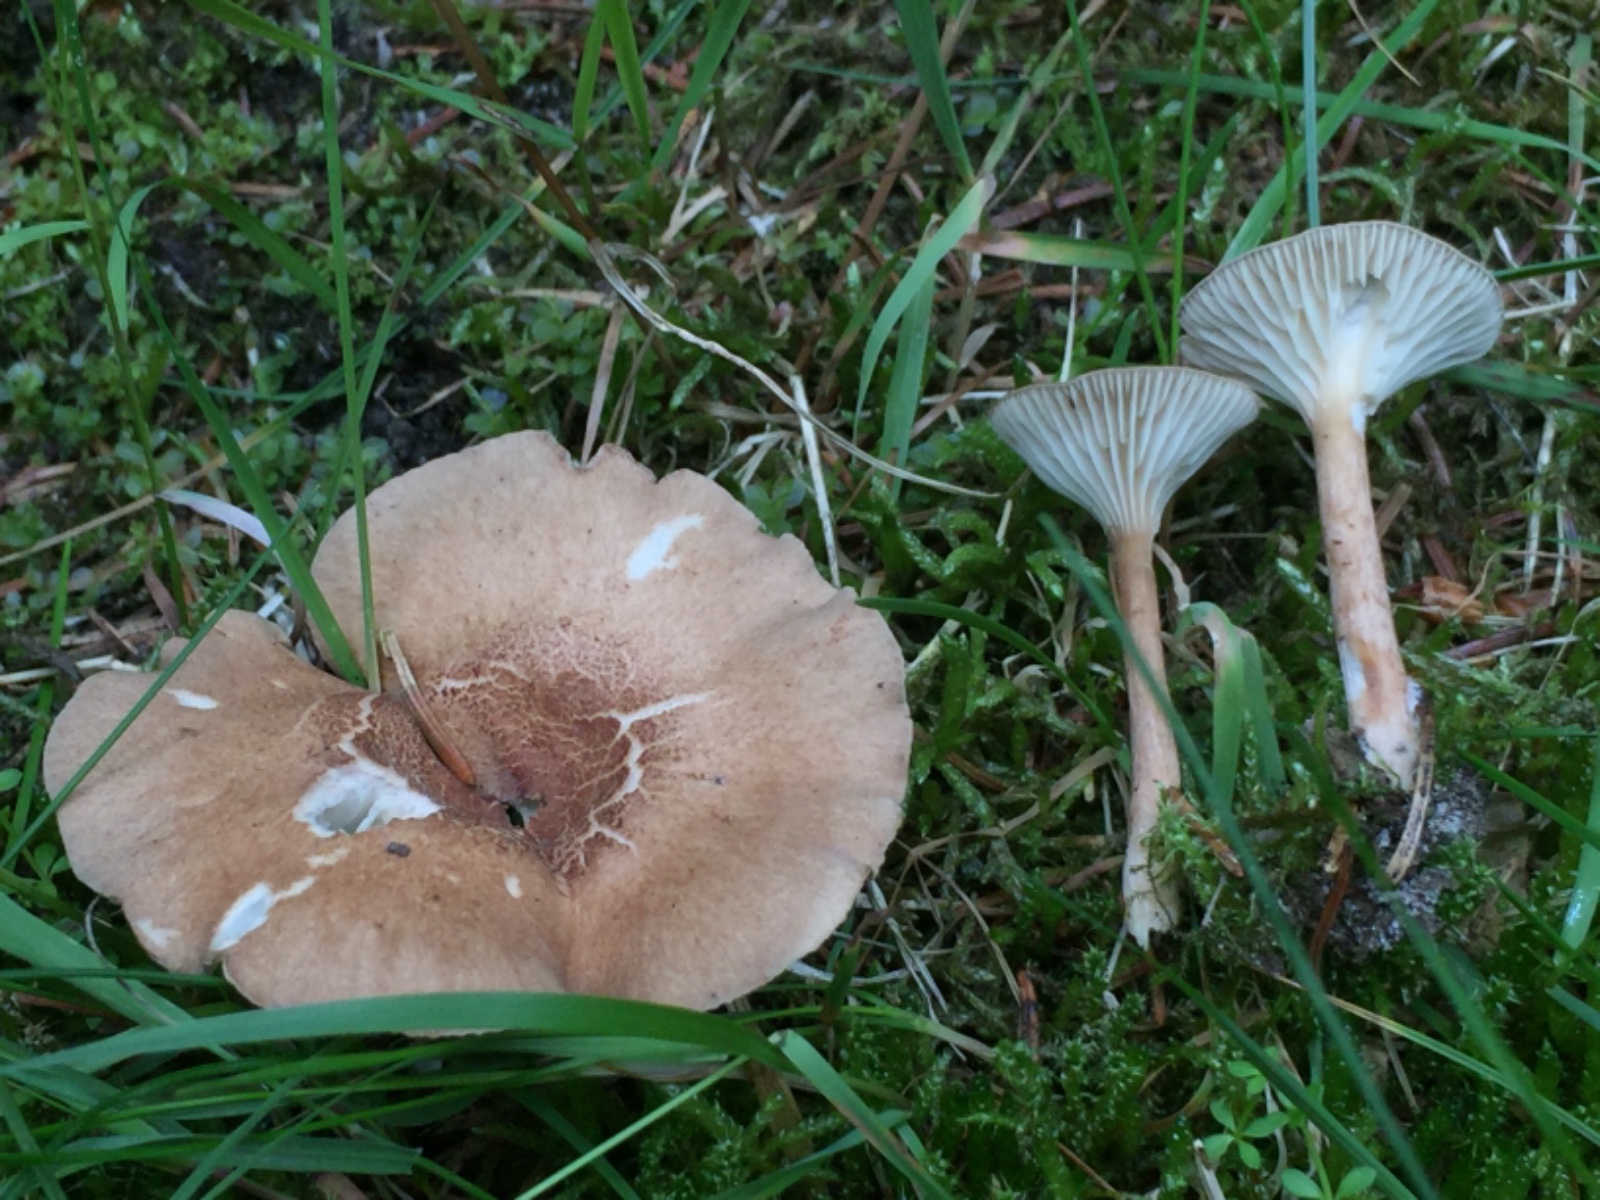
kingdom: Fungi
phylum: Basidiomycota
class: Agaricomycetes
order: Agaricales
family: Tricholomataceae
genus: Infundibulicybe
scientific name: Infundibulicybe squamulosa
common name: småskællet tragthat
